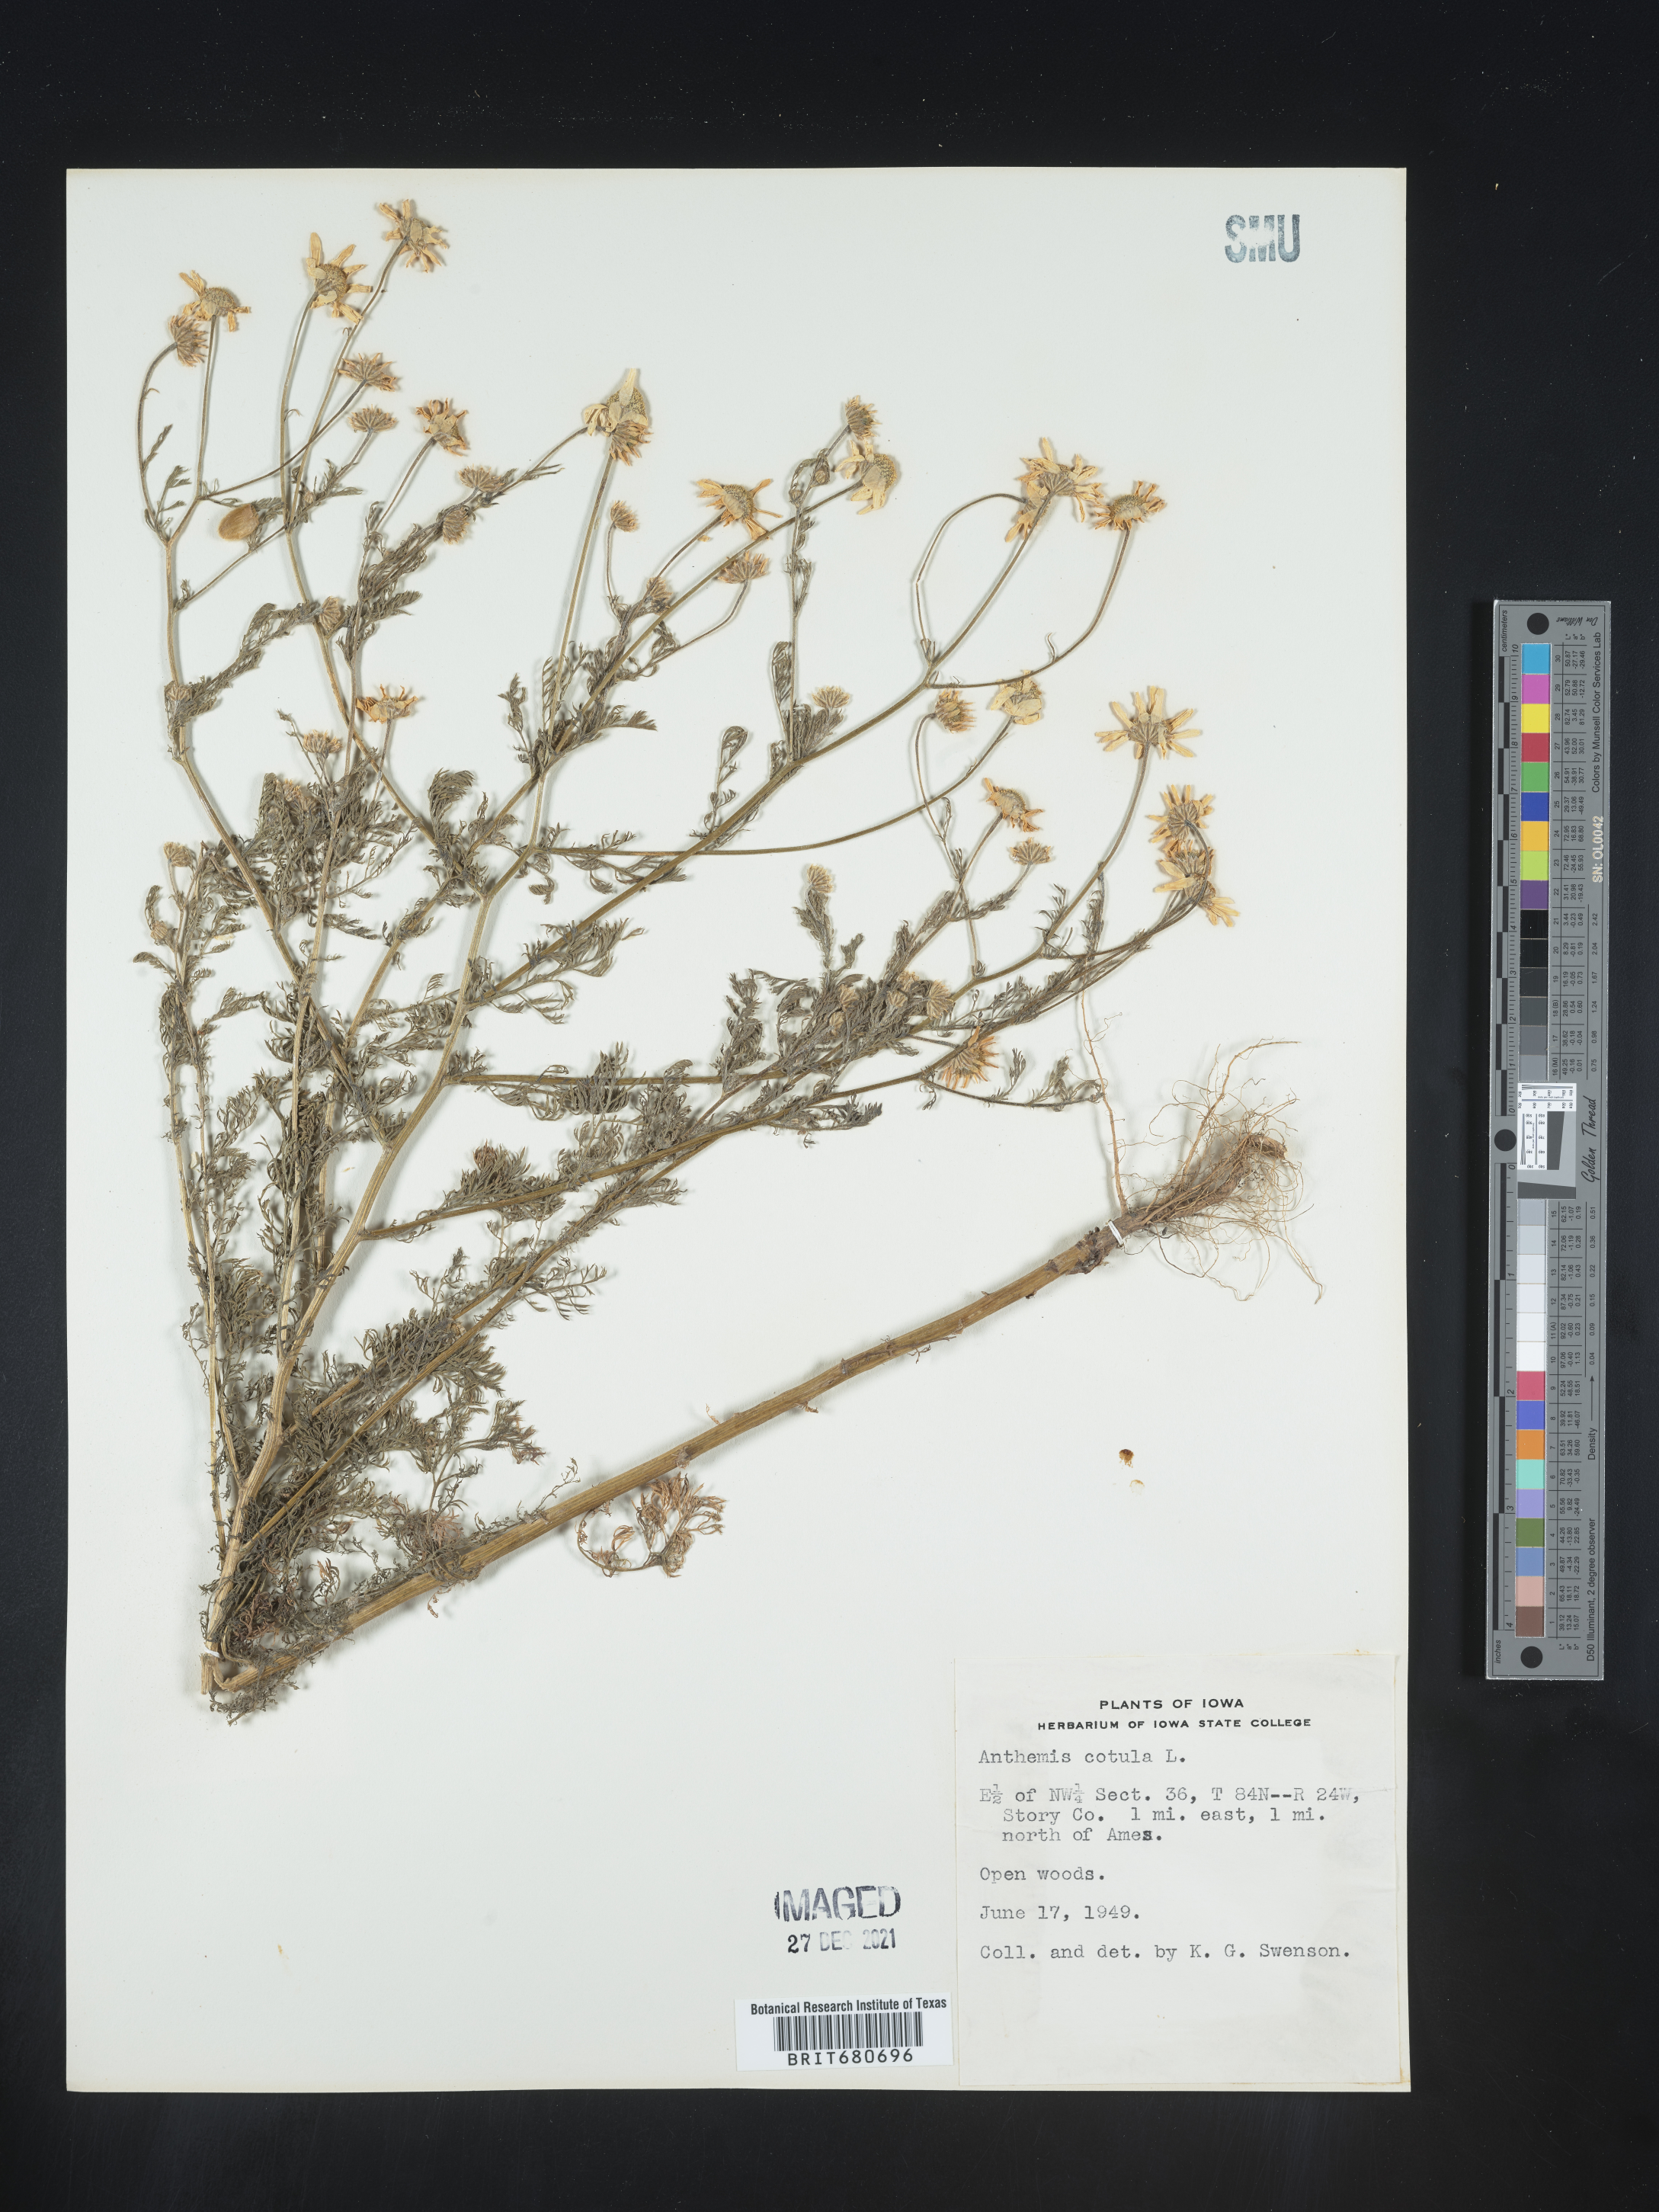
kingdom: Plantae
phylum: Tracheophyta
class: Magnoliopsida
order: Asterales
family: Asteraceae
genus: Anthemis
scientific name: Anthemis cotula
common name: Stinking chamomile
